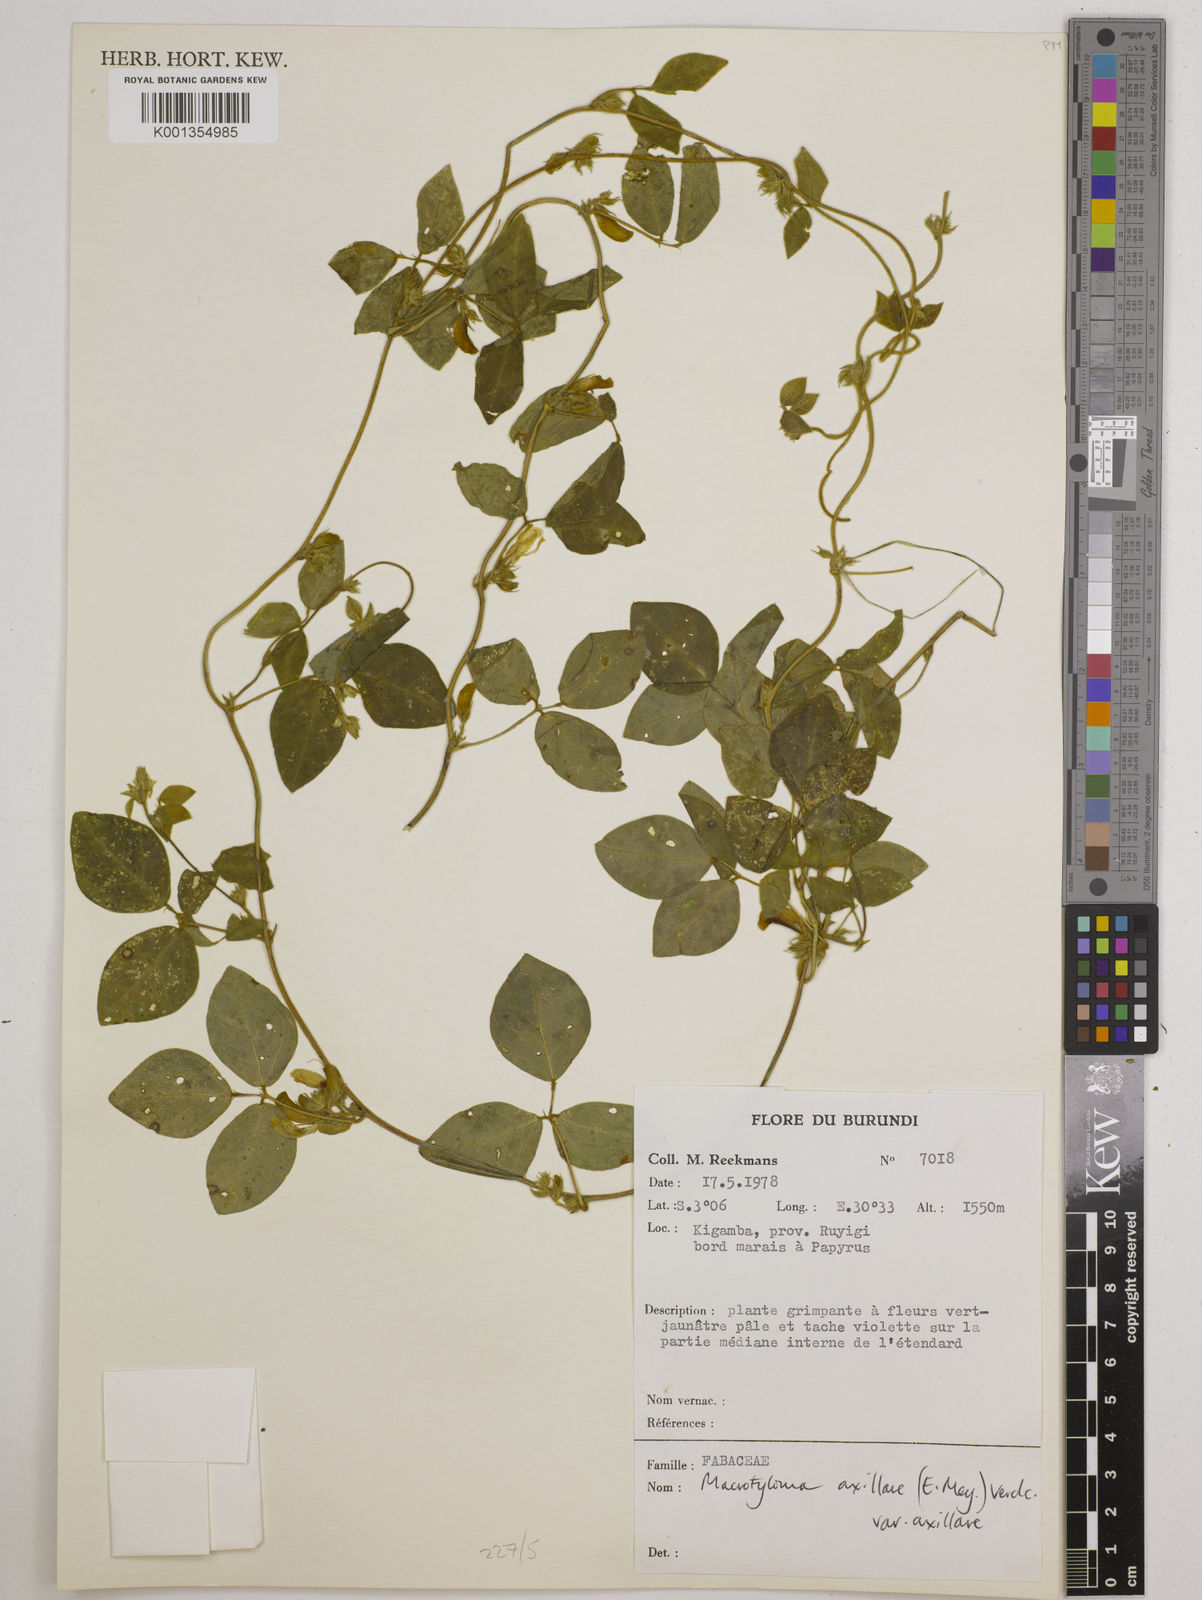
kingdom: Plantae
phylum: Tracheophyta
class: Magnoliopsida
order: Fabales
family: Fabaceae
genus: Macrotyloma
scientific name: Macrotyloma
